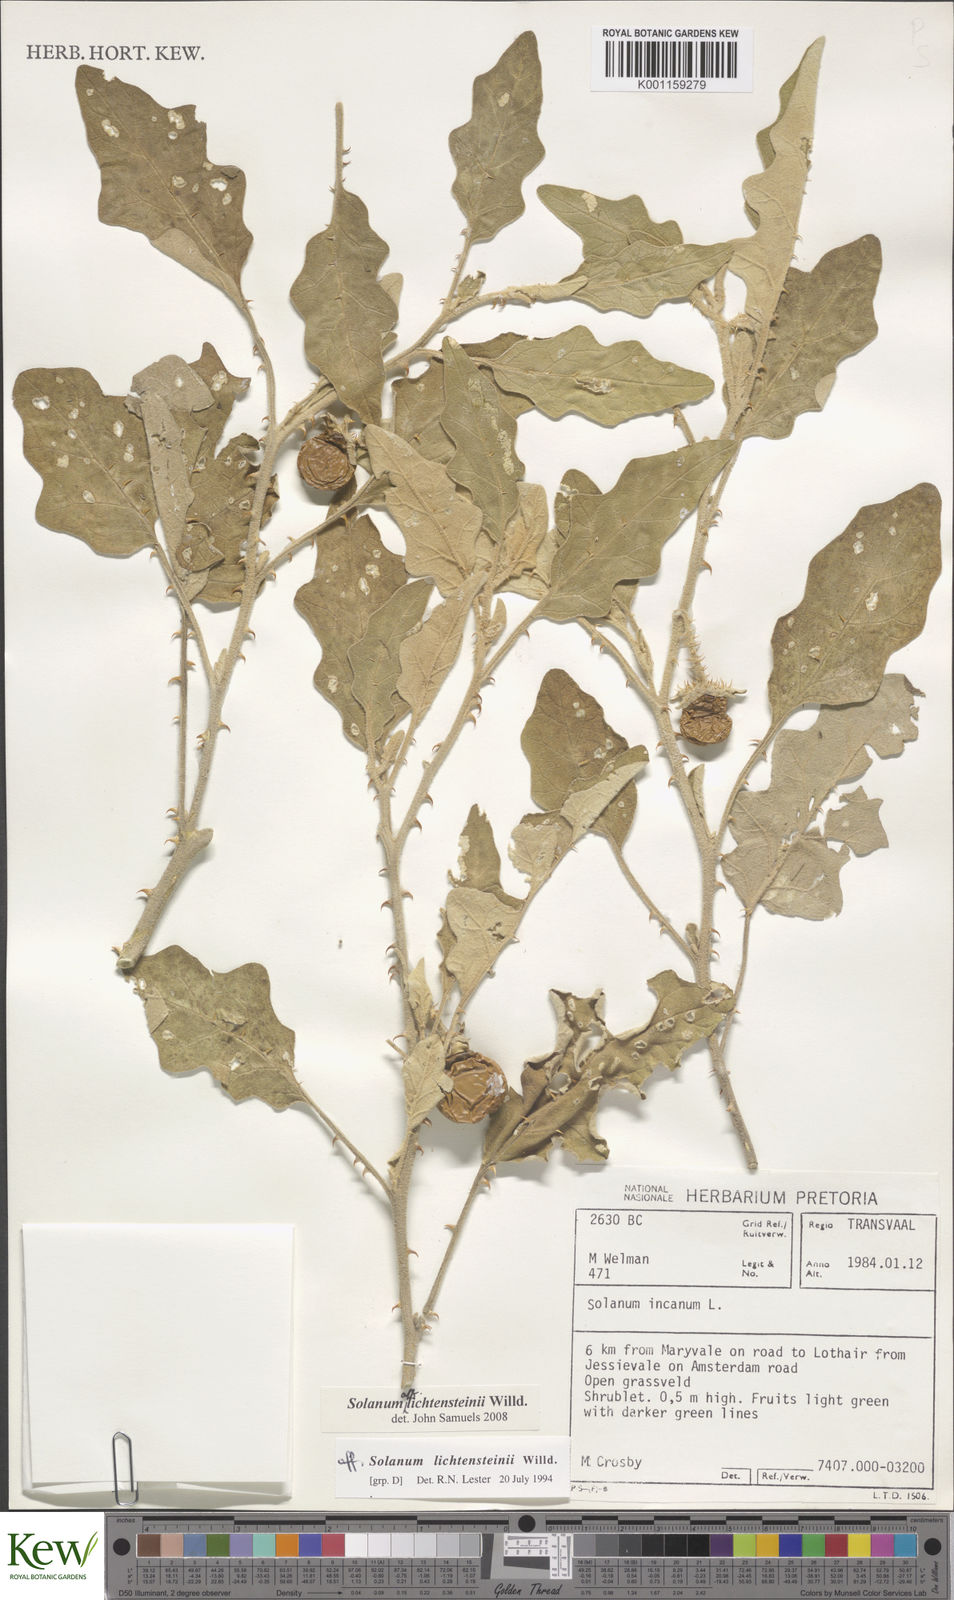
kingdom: Plantae
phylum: Tracheophyta
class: Magnoliopsida
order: Solanales
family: Solanaceae
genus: Solanum
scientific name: Solanum lichtensteinii
